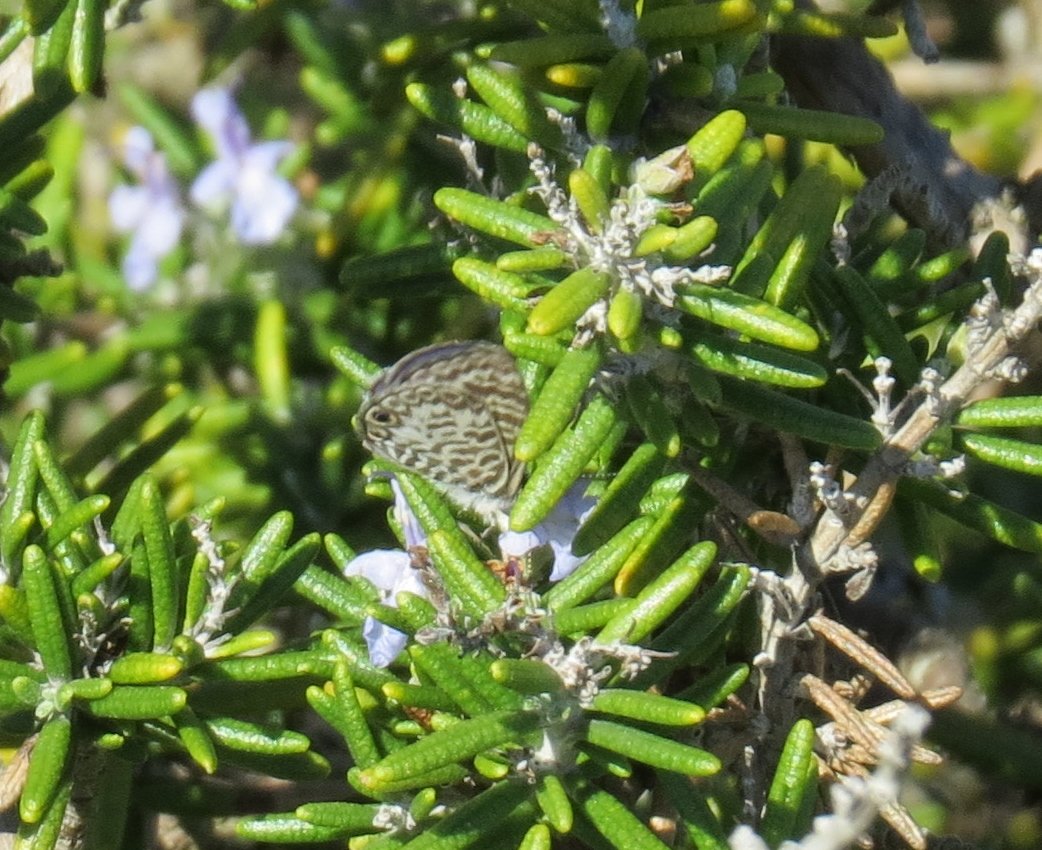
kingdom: Animalia
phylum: Arthropoda
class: Insecta
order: Lepidoptera
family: Lycaenidae
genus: Leptotes
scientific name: Leptotes cassius
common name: Cassius Blue
